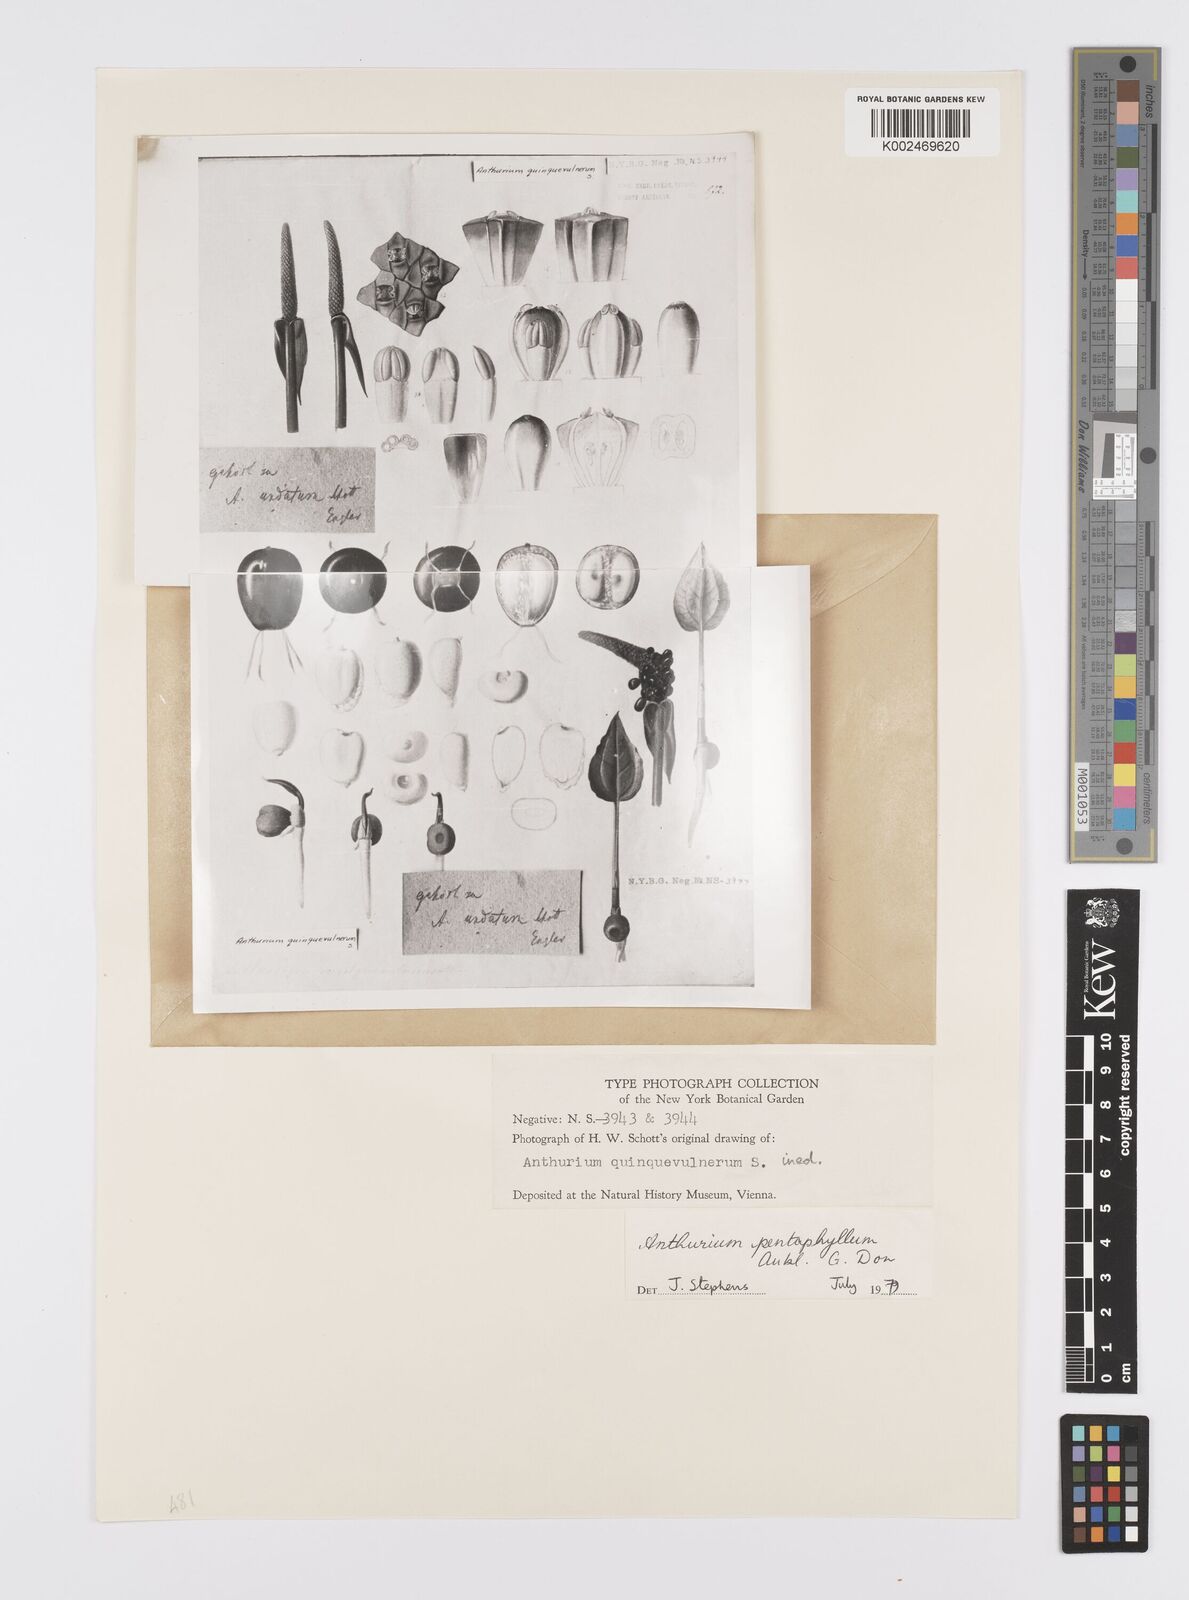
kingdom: Plantae
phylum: Tracheophyta
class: Liliopsida
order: Alismatales
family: Araceae
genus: Anthurium
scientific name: Anthurium pentaphyllum
